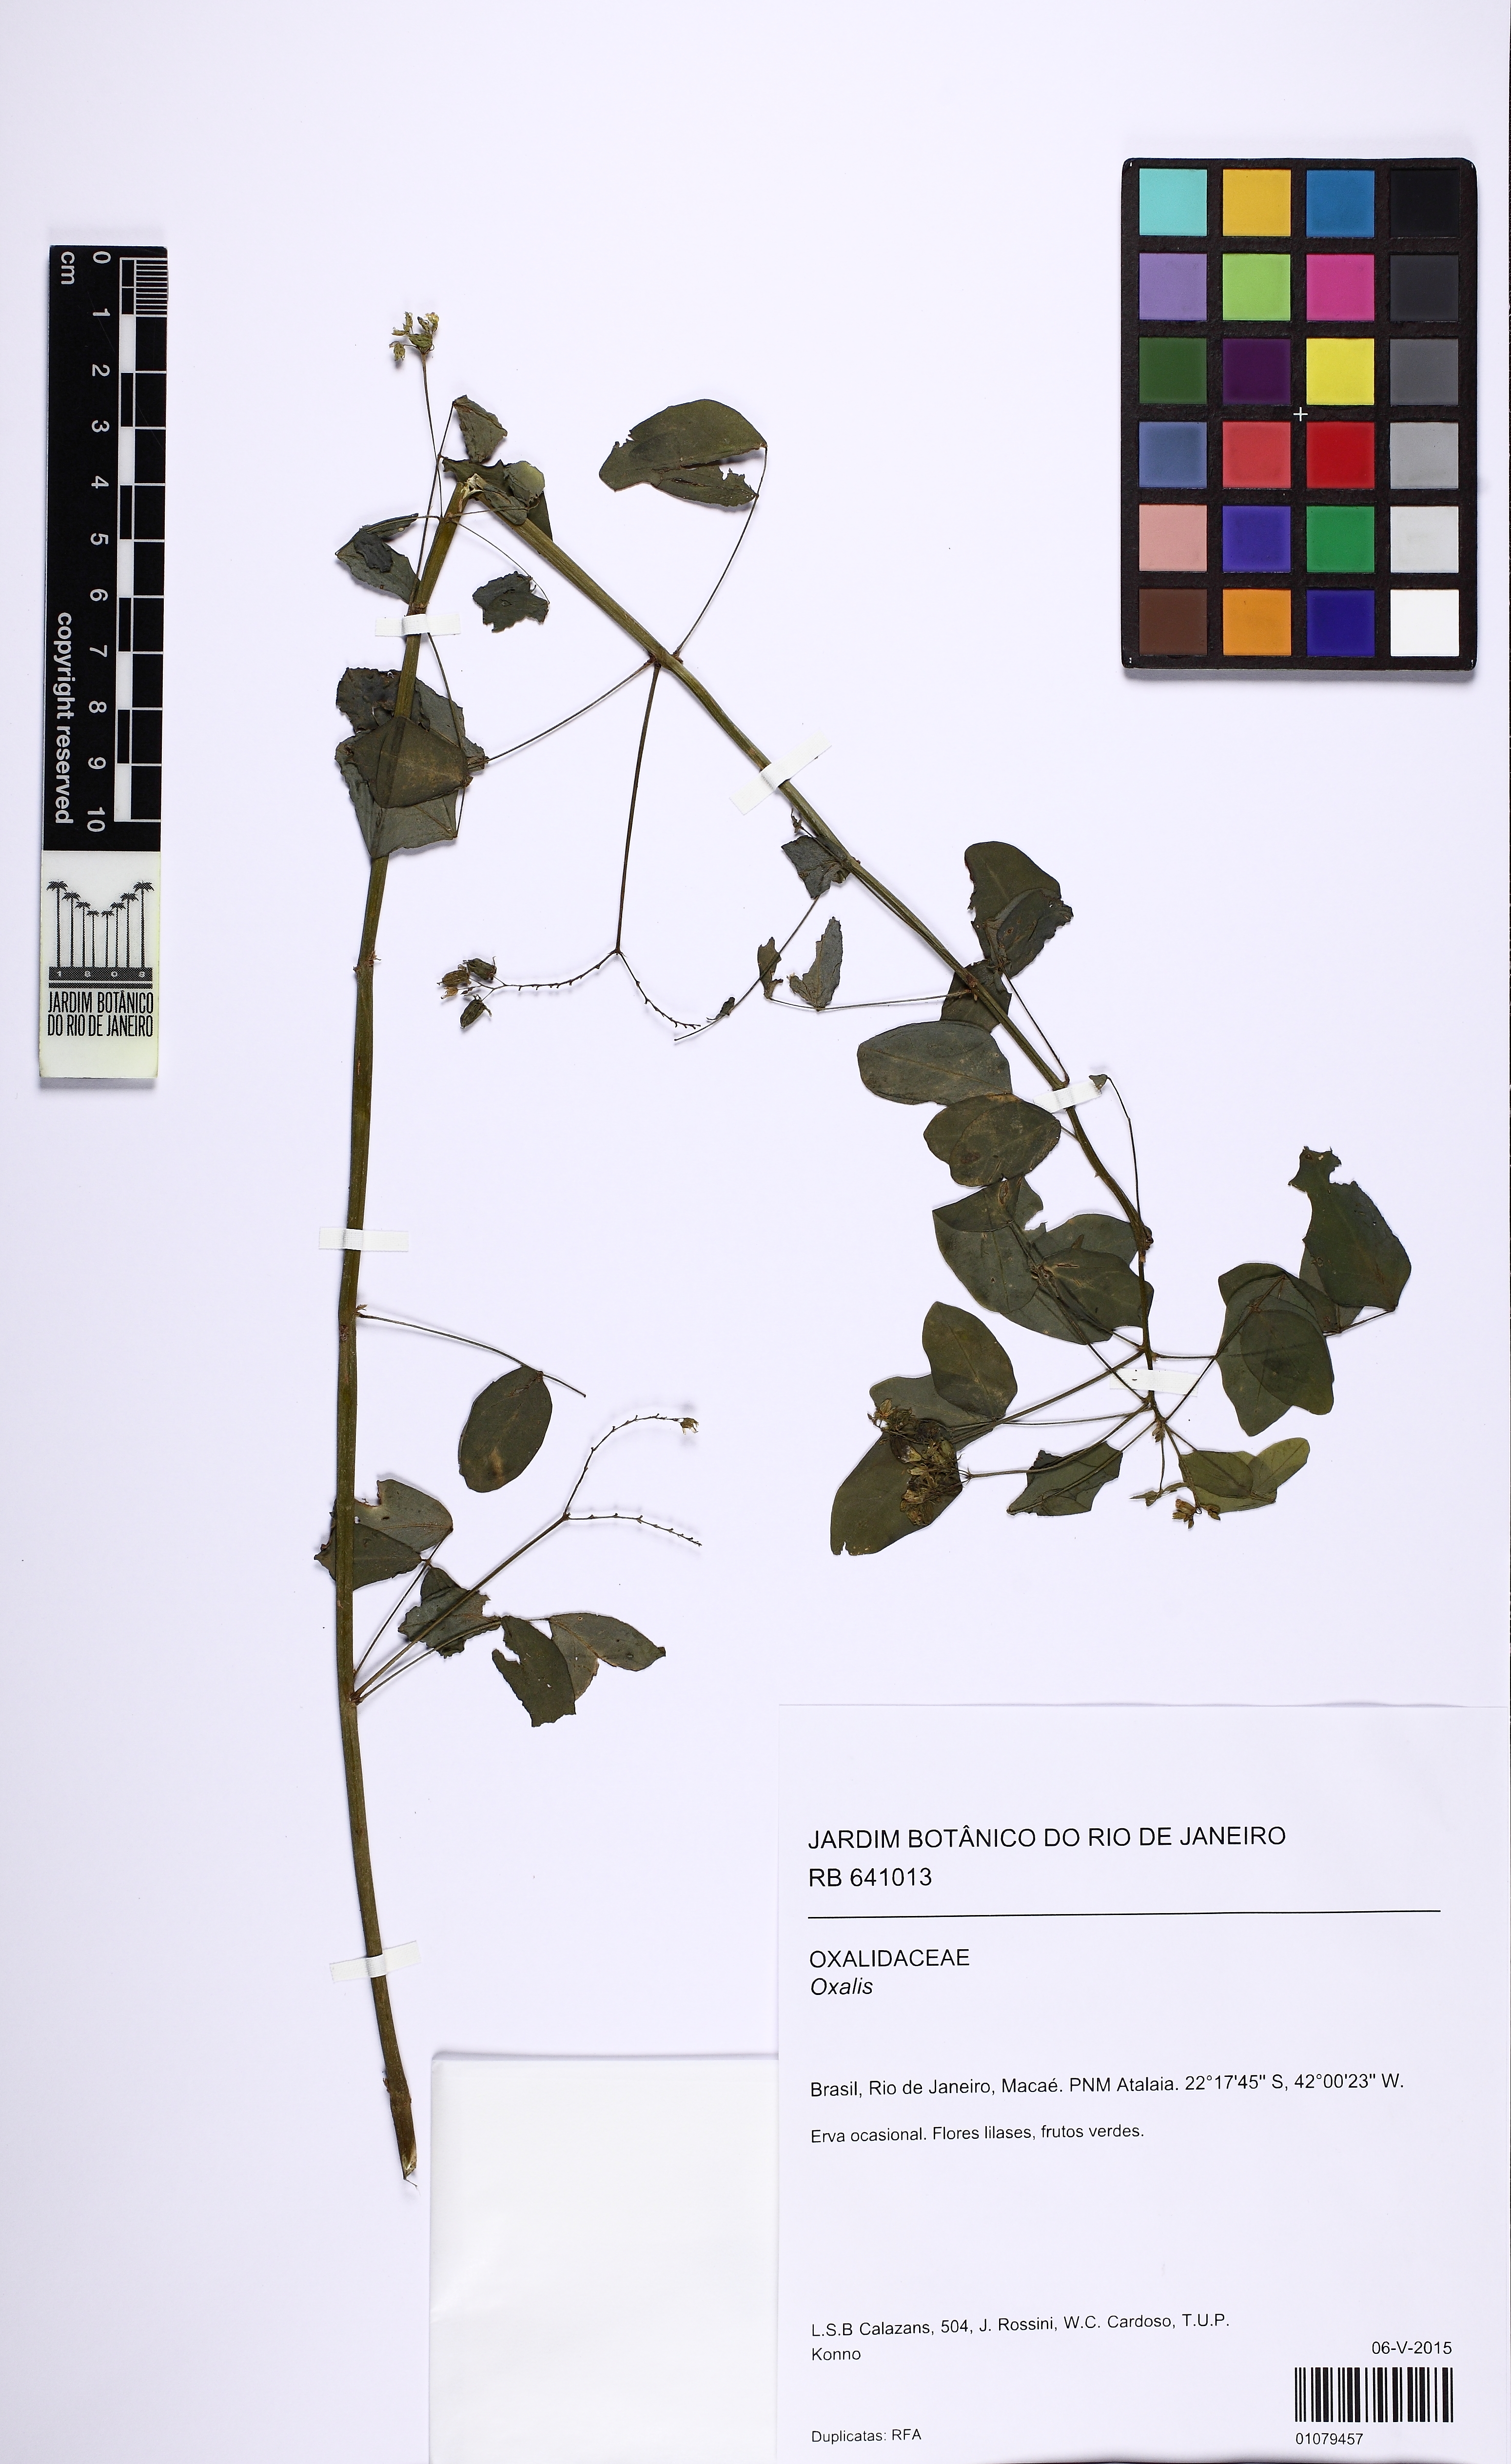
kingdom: Plantae
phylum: Tracheophyta
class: Magnoliopsida
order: Oxalidales
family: Oxalidaceae
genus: Oxalis
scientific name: Oxalis barrelieri
